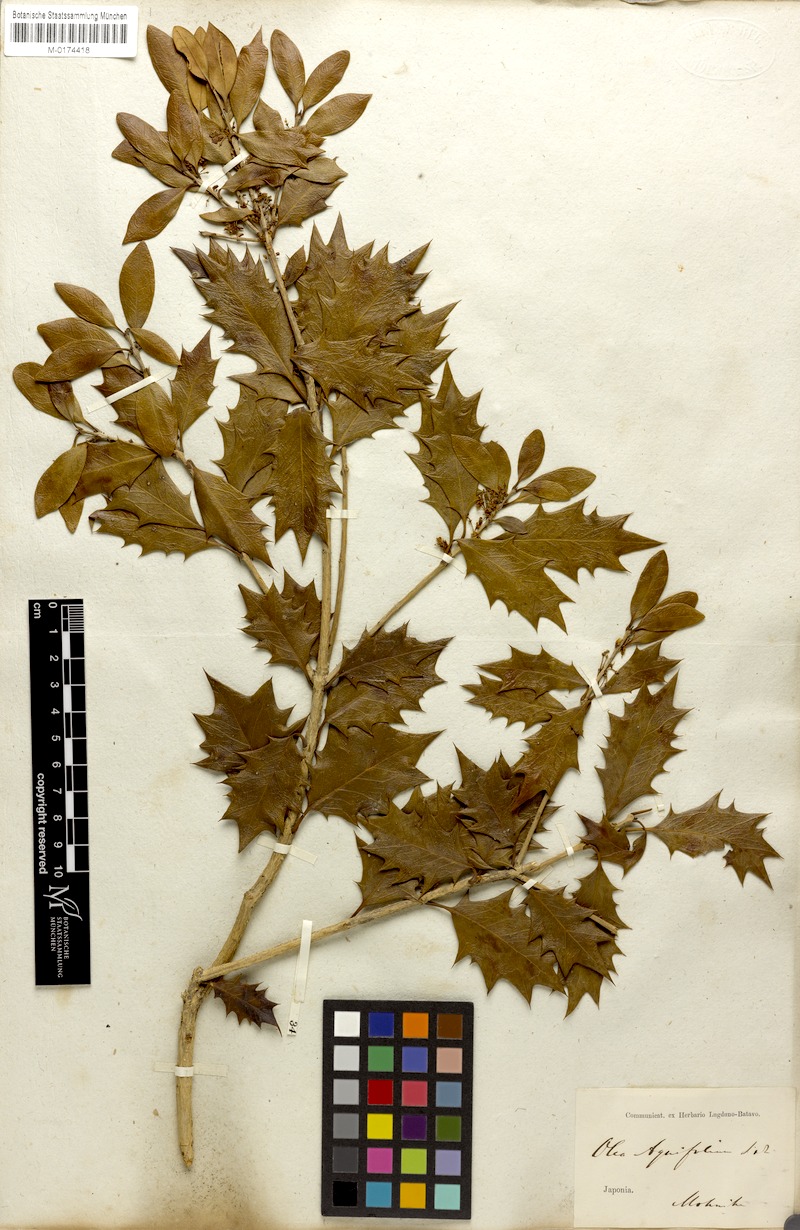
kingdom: Plantae
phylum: Tracheophyta
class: Magnoliopsida
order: Lamiales
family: Oleaceae
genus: Osmanthus
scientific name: Osmanthus heterophyllus
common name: Holly osmanthus
